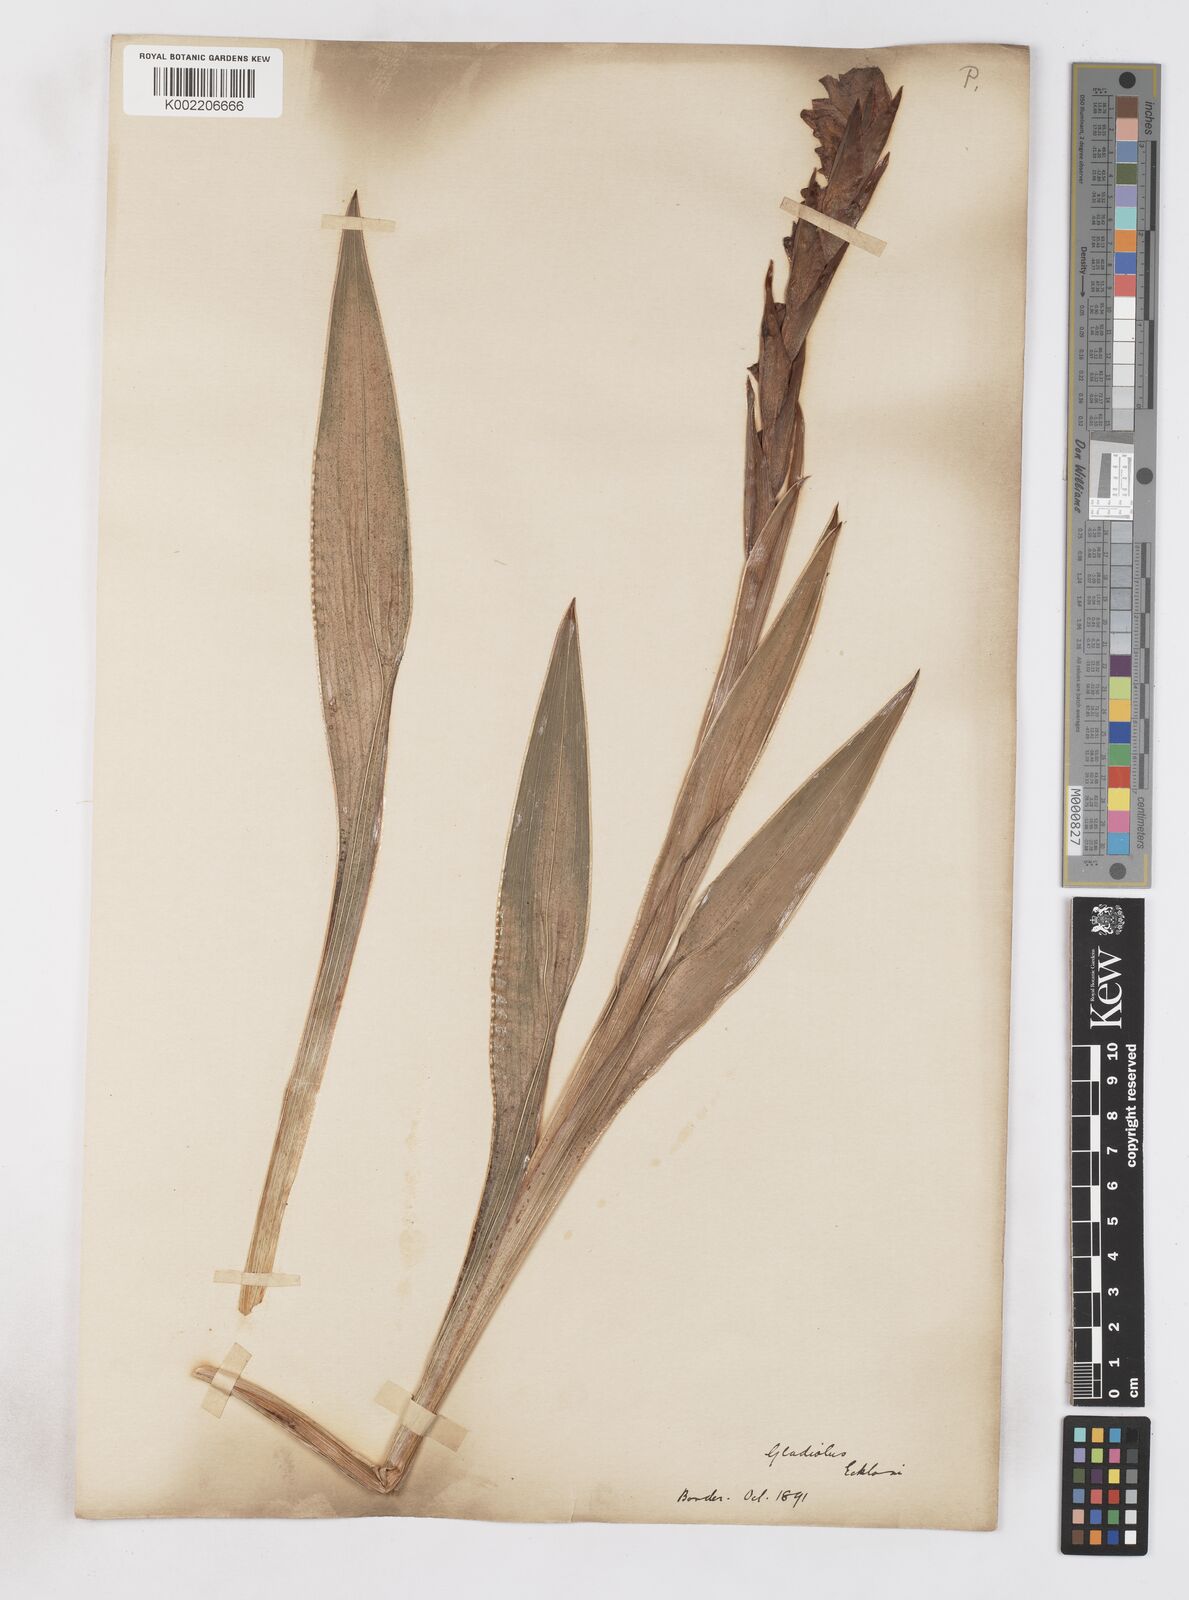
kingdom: Plantae
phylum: Tracheophyta
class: Liliopsida
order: Asparagales
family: Iridaceae
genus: Gladiolus
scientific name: Gladiolus ecklonii
